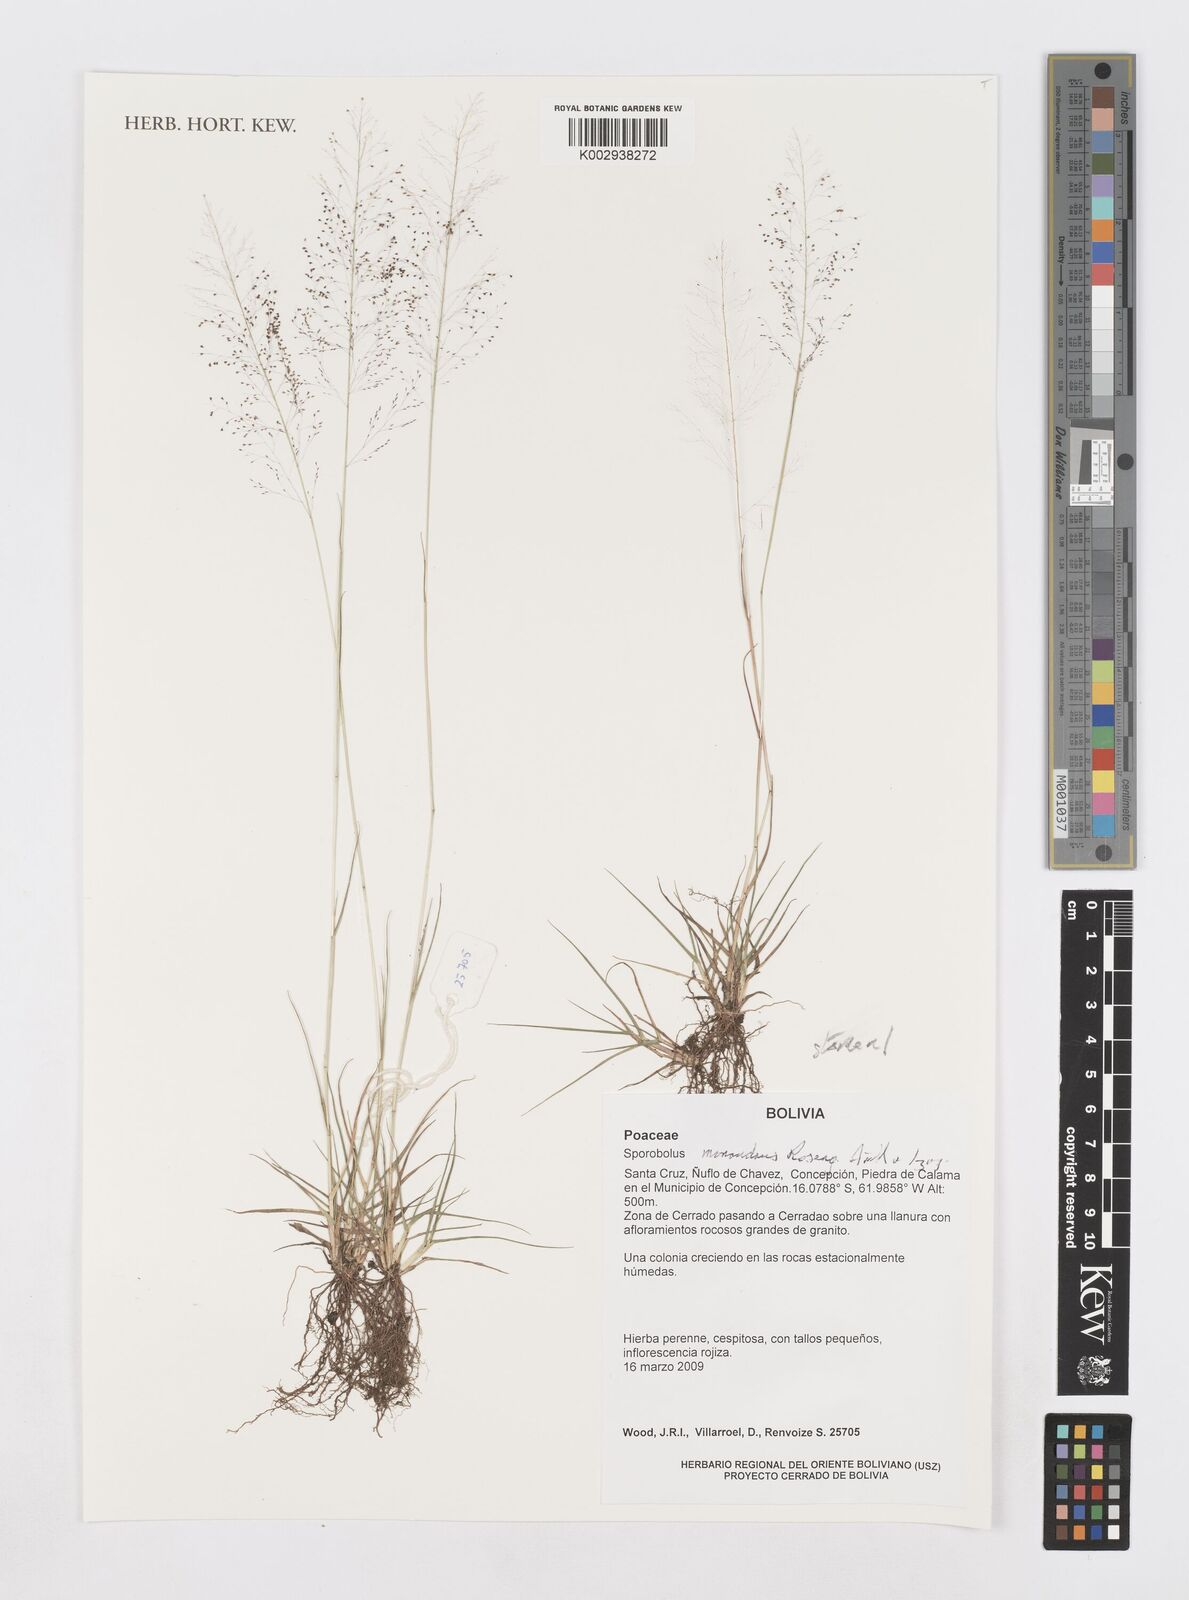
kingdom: Plantae
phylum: Tracheophyta
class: Liliopsida
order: Poales
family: Poaceae
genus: Sporobolus
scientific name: Sporobolus monandrus
